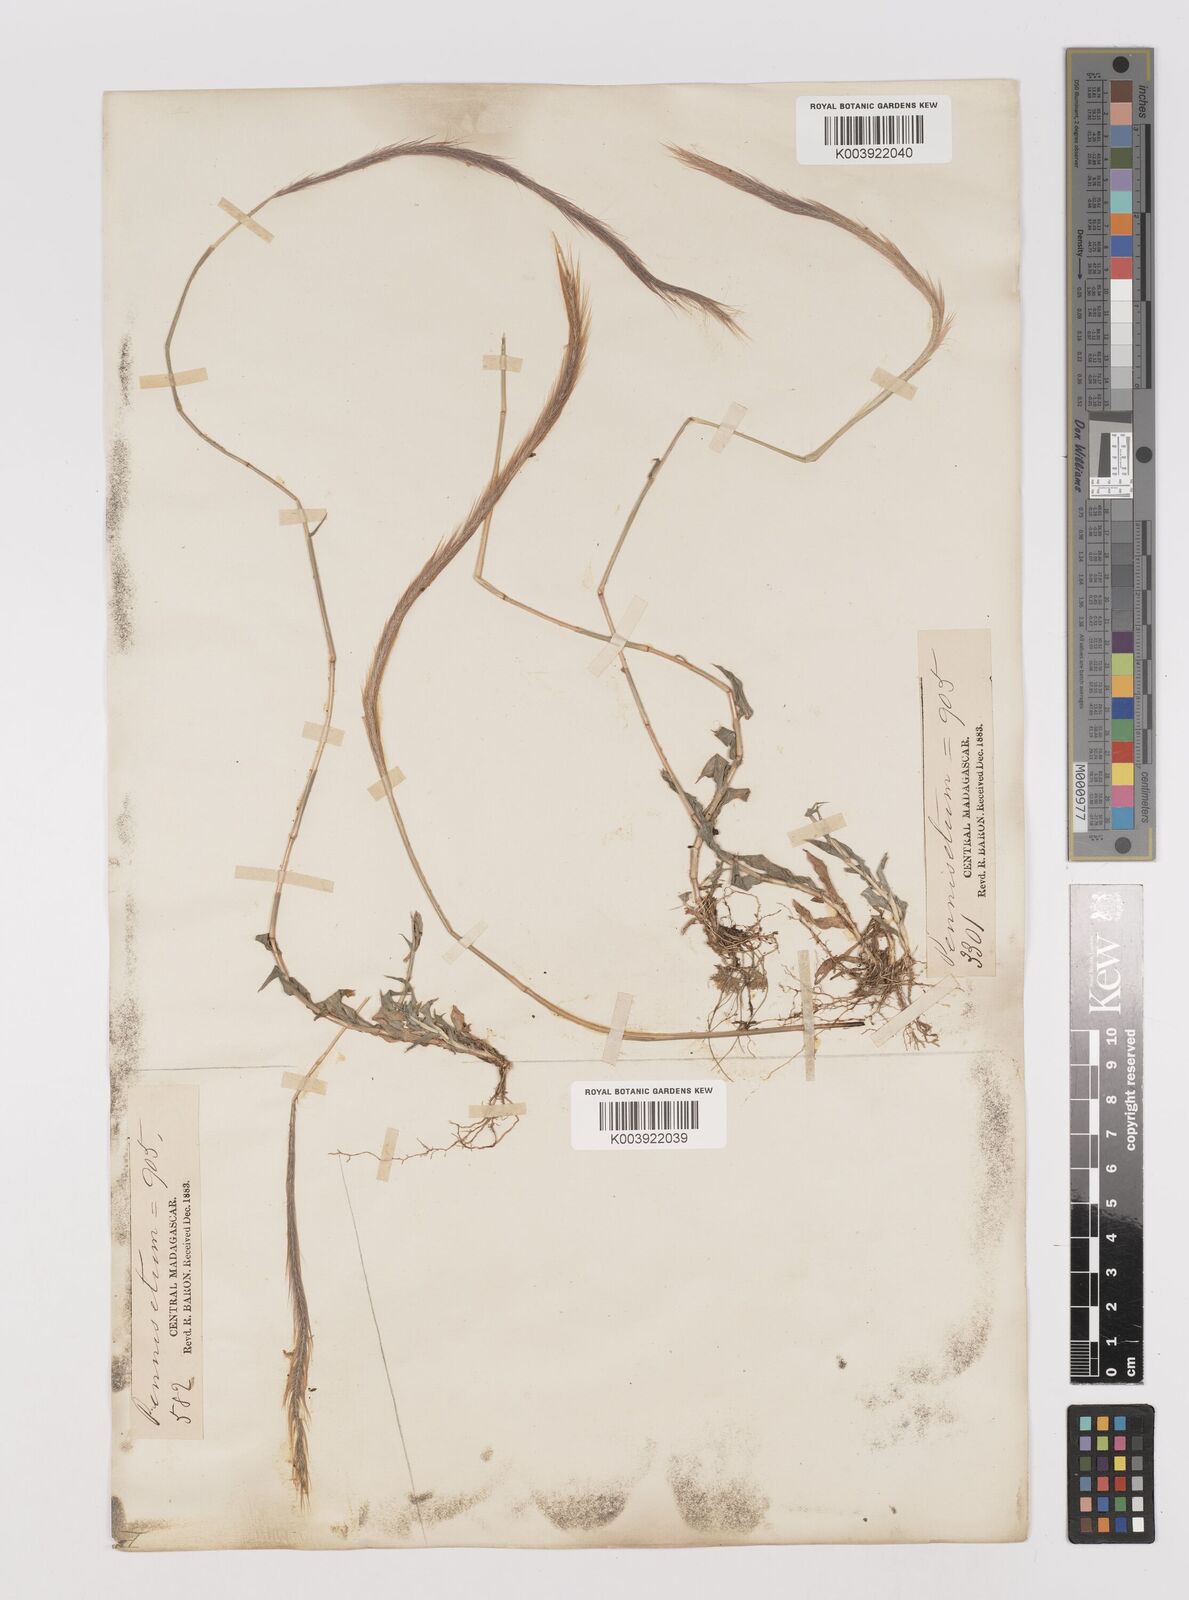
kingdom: Plantae
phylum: Tracheophyta
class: Liliopsida
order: Poales
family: Poaceae
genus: Perotis
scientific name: Perotis patens
